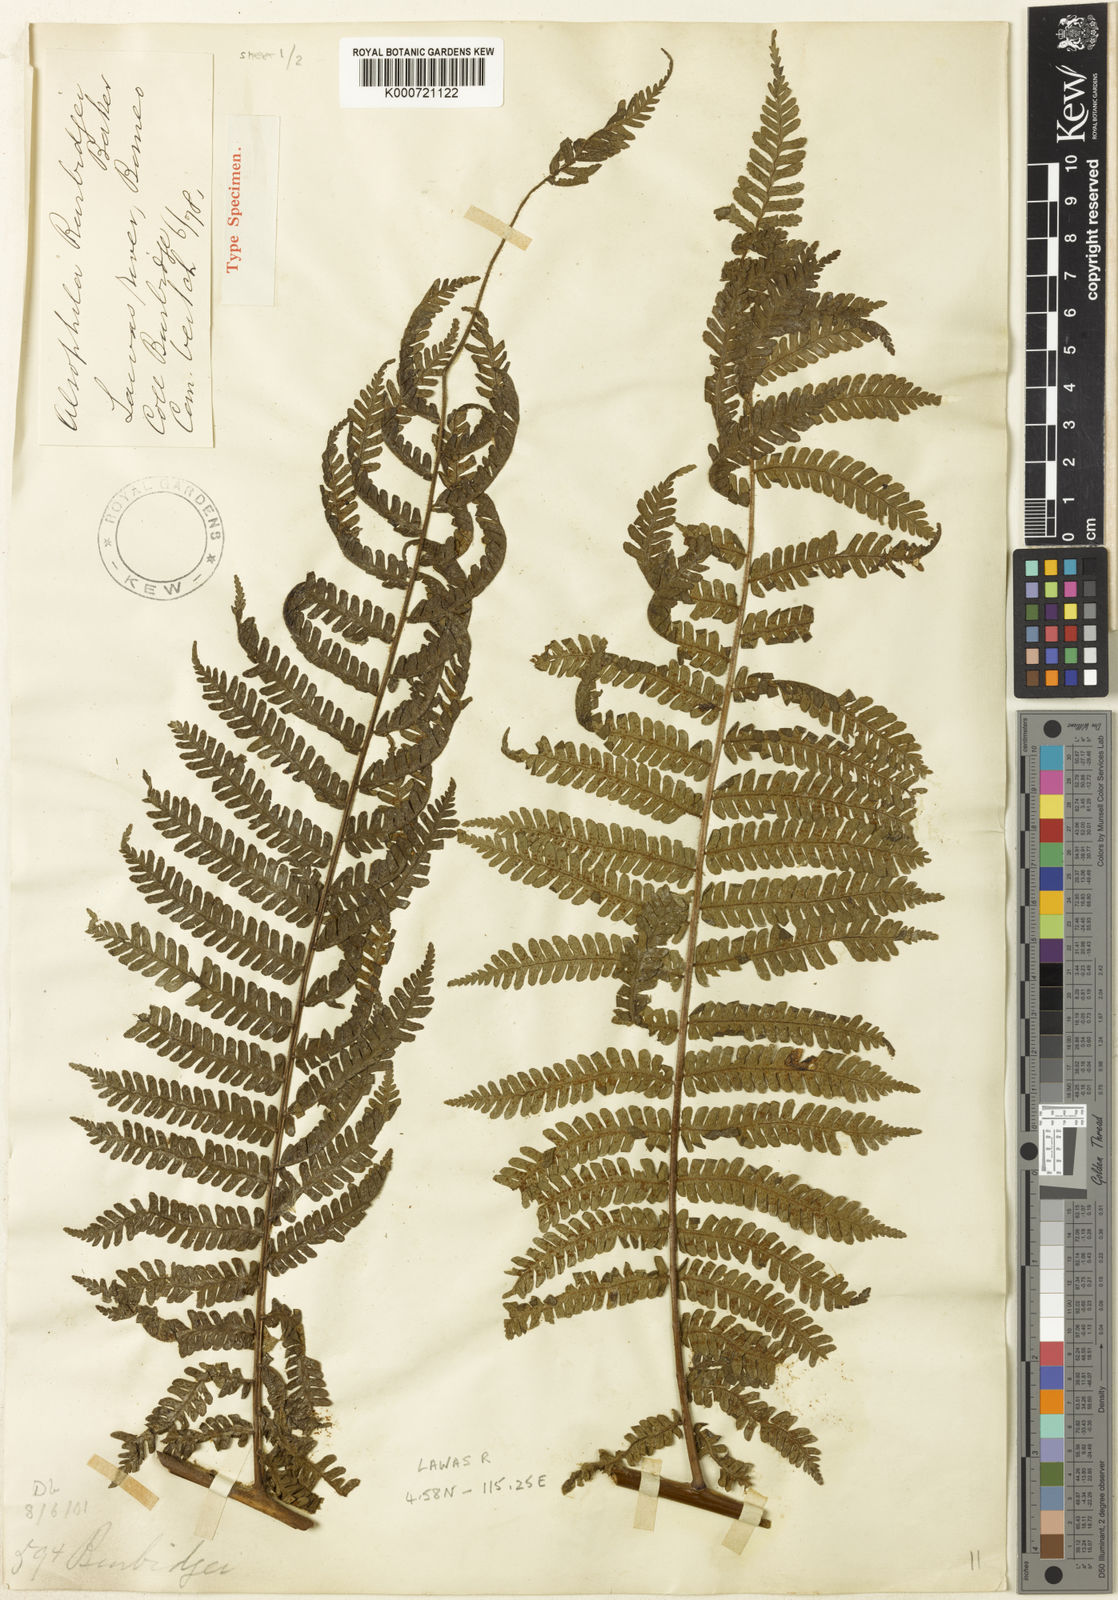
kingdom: Plantae
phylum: Tracheophyta
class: Polypodiopsida
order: Cyatheales
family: Cyatheaceae
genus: Sphaeropteris
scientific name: Sphaeropteris wallacei
